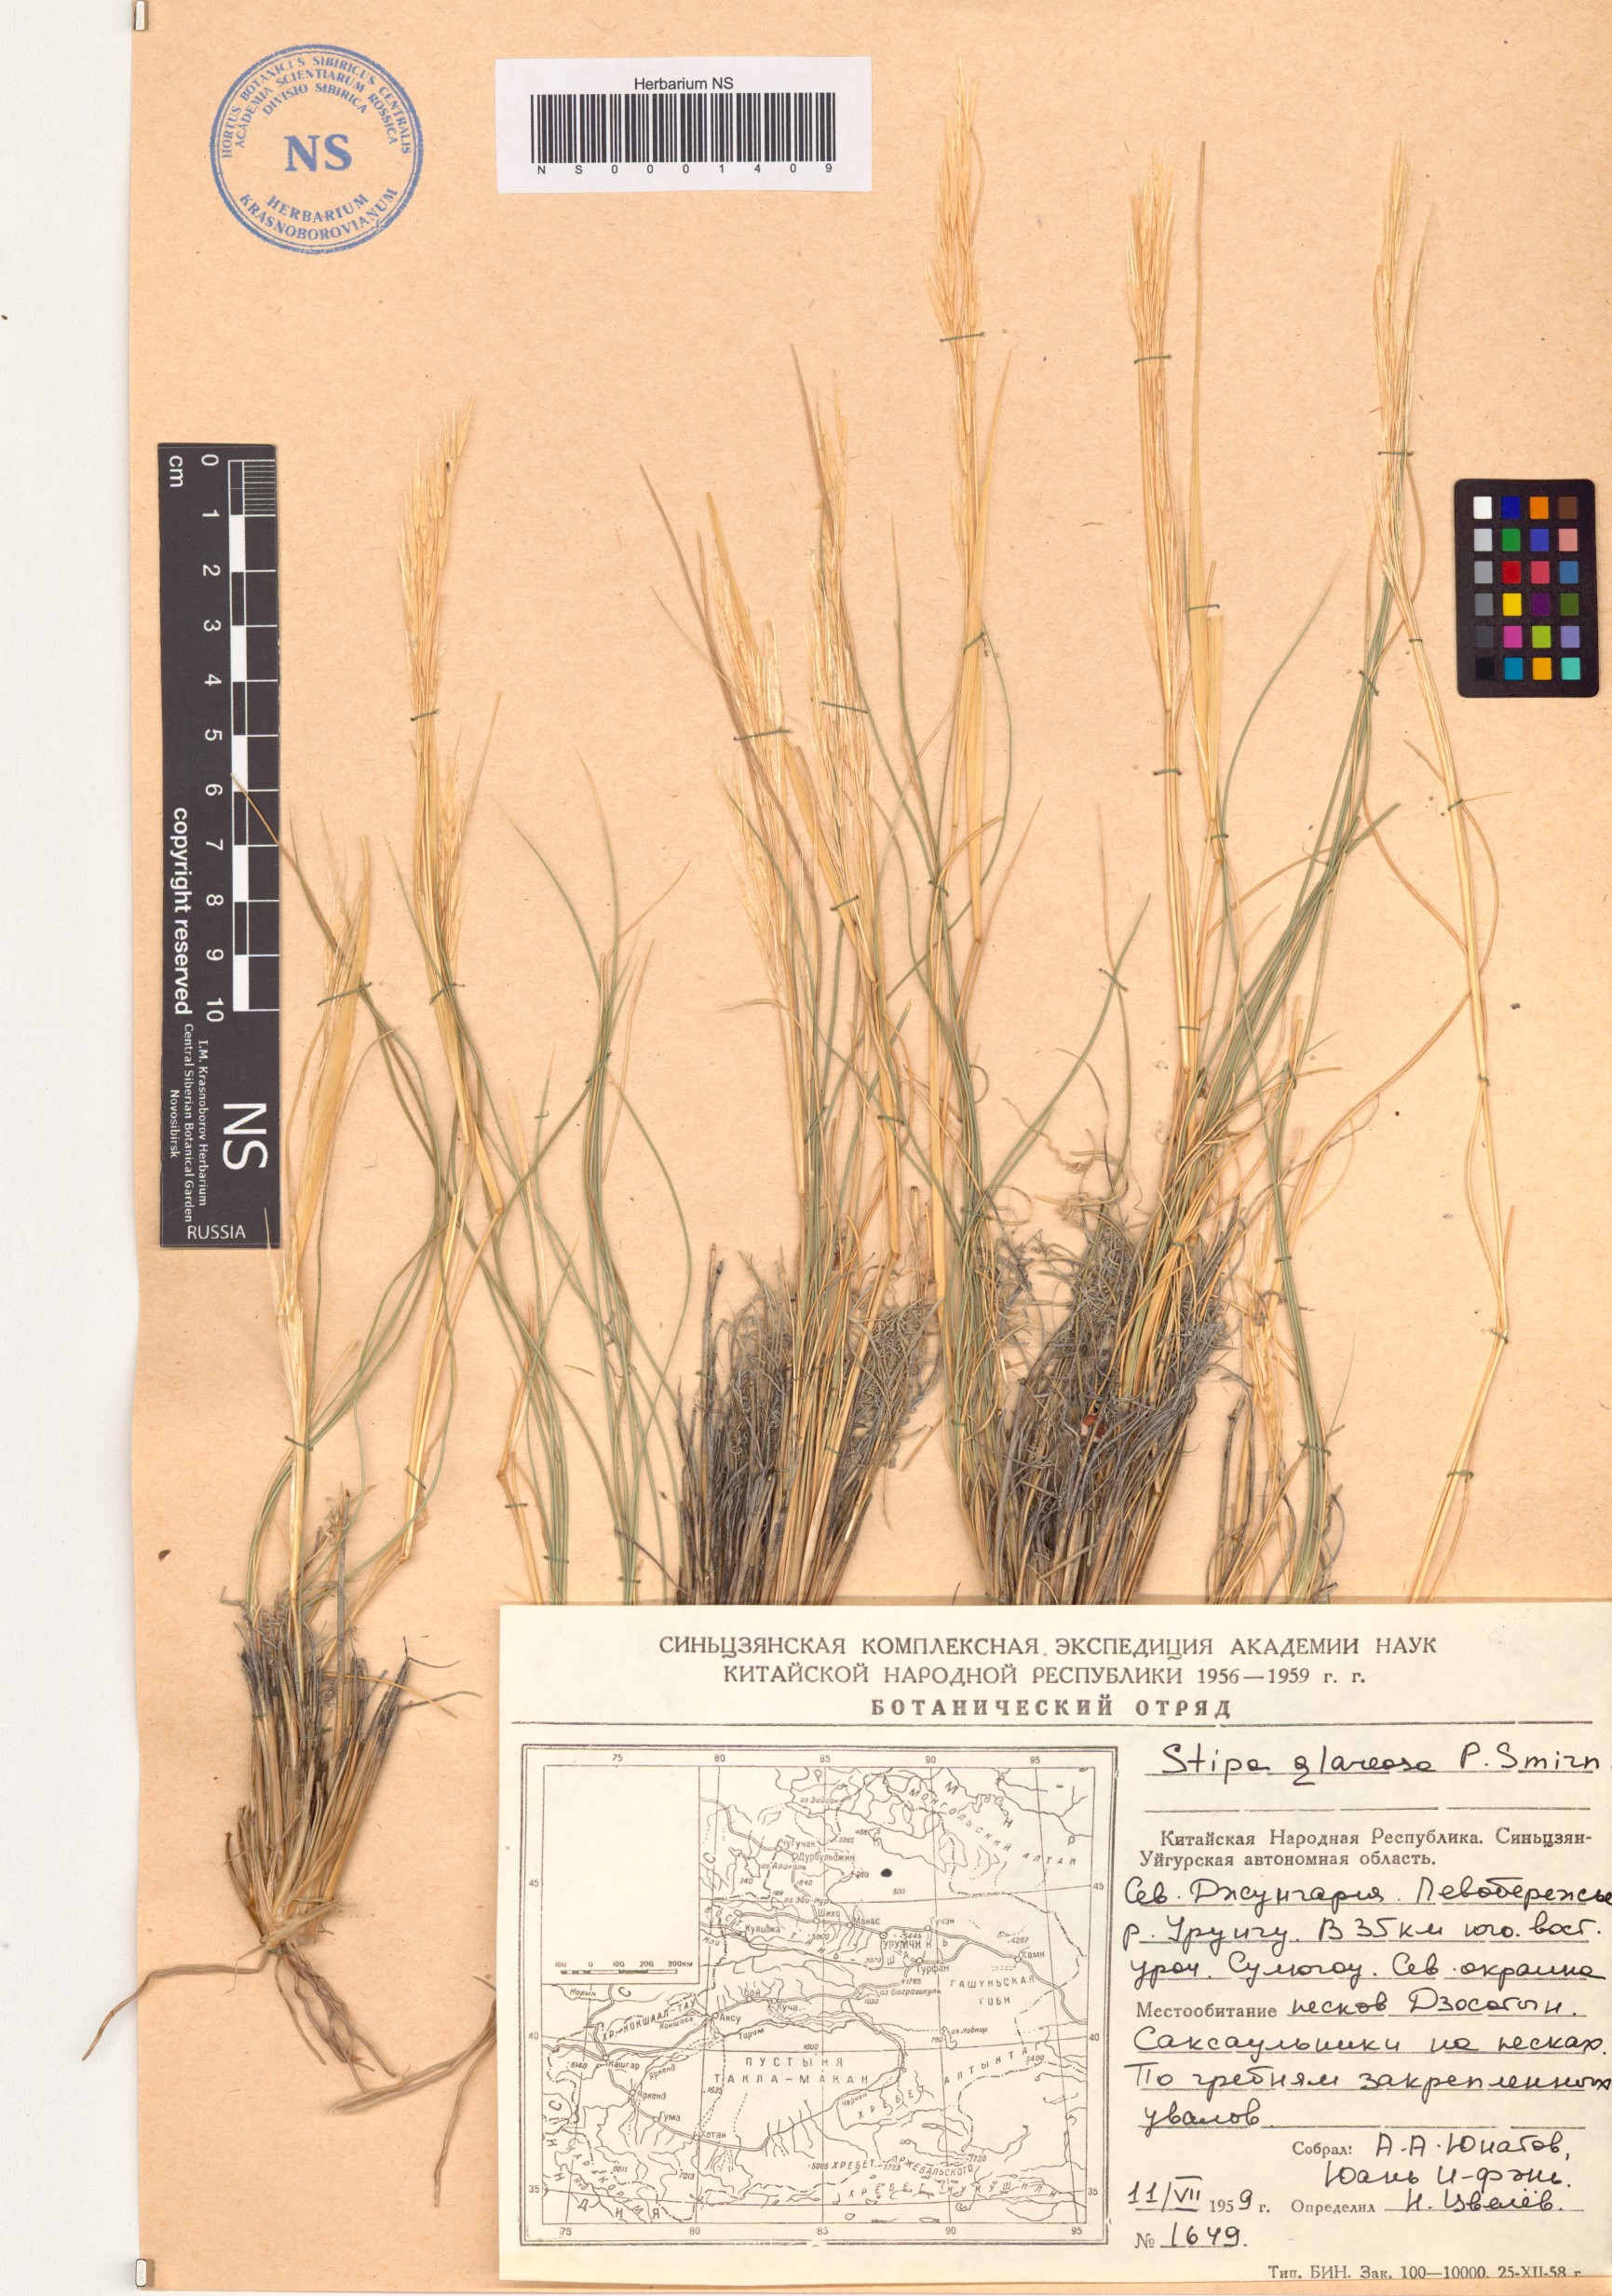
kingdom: Plantae
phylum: Tracheophyta
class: Liliopsida
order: Poales
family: Poaceae
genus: Stipa
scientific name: Stipa glareosa
